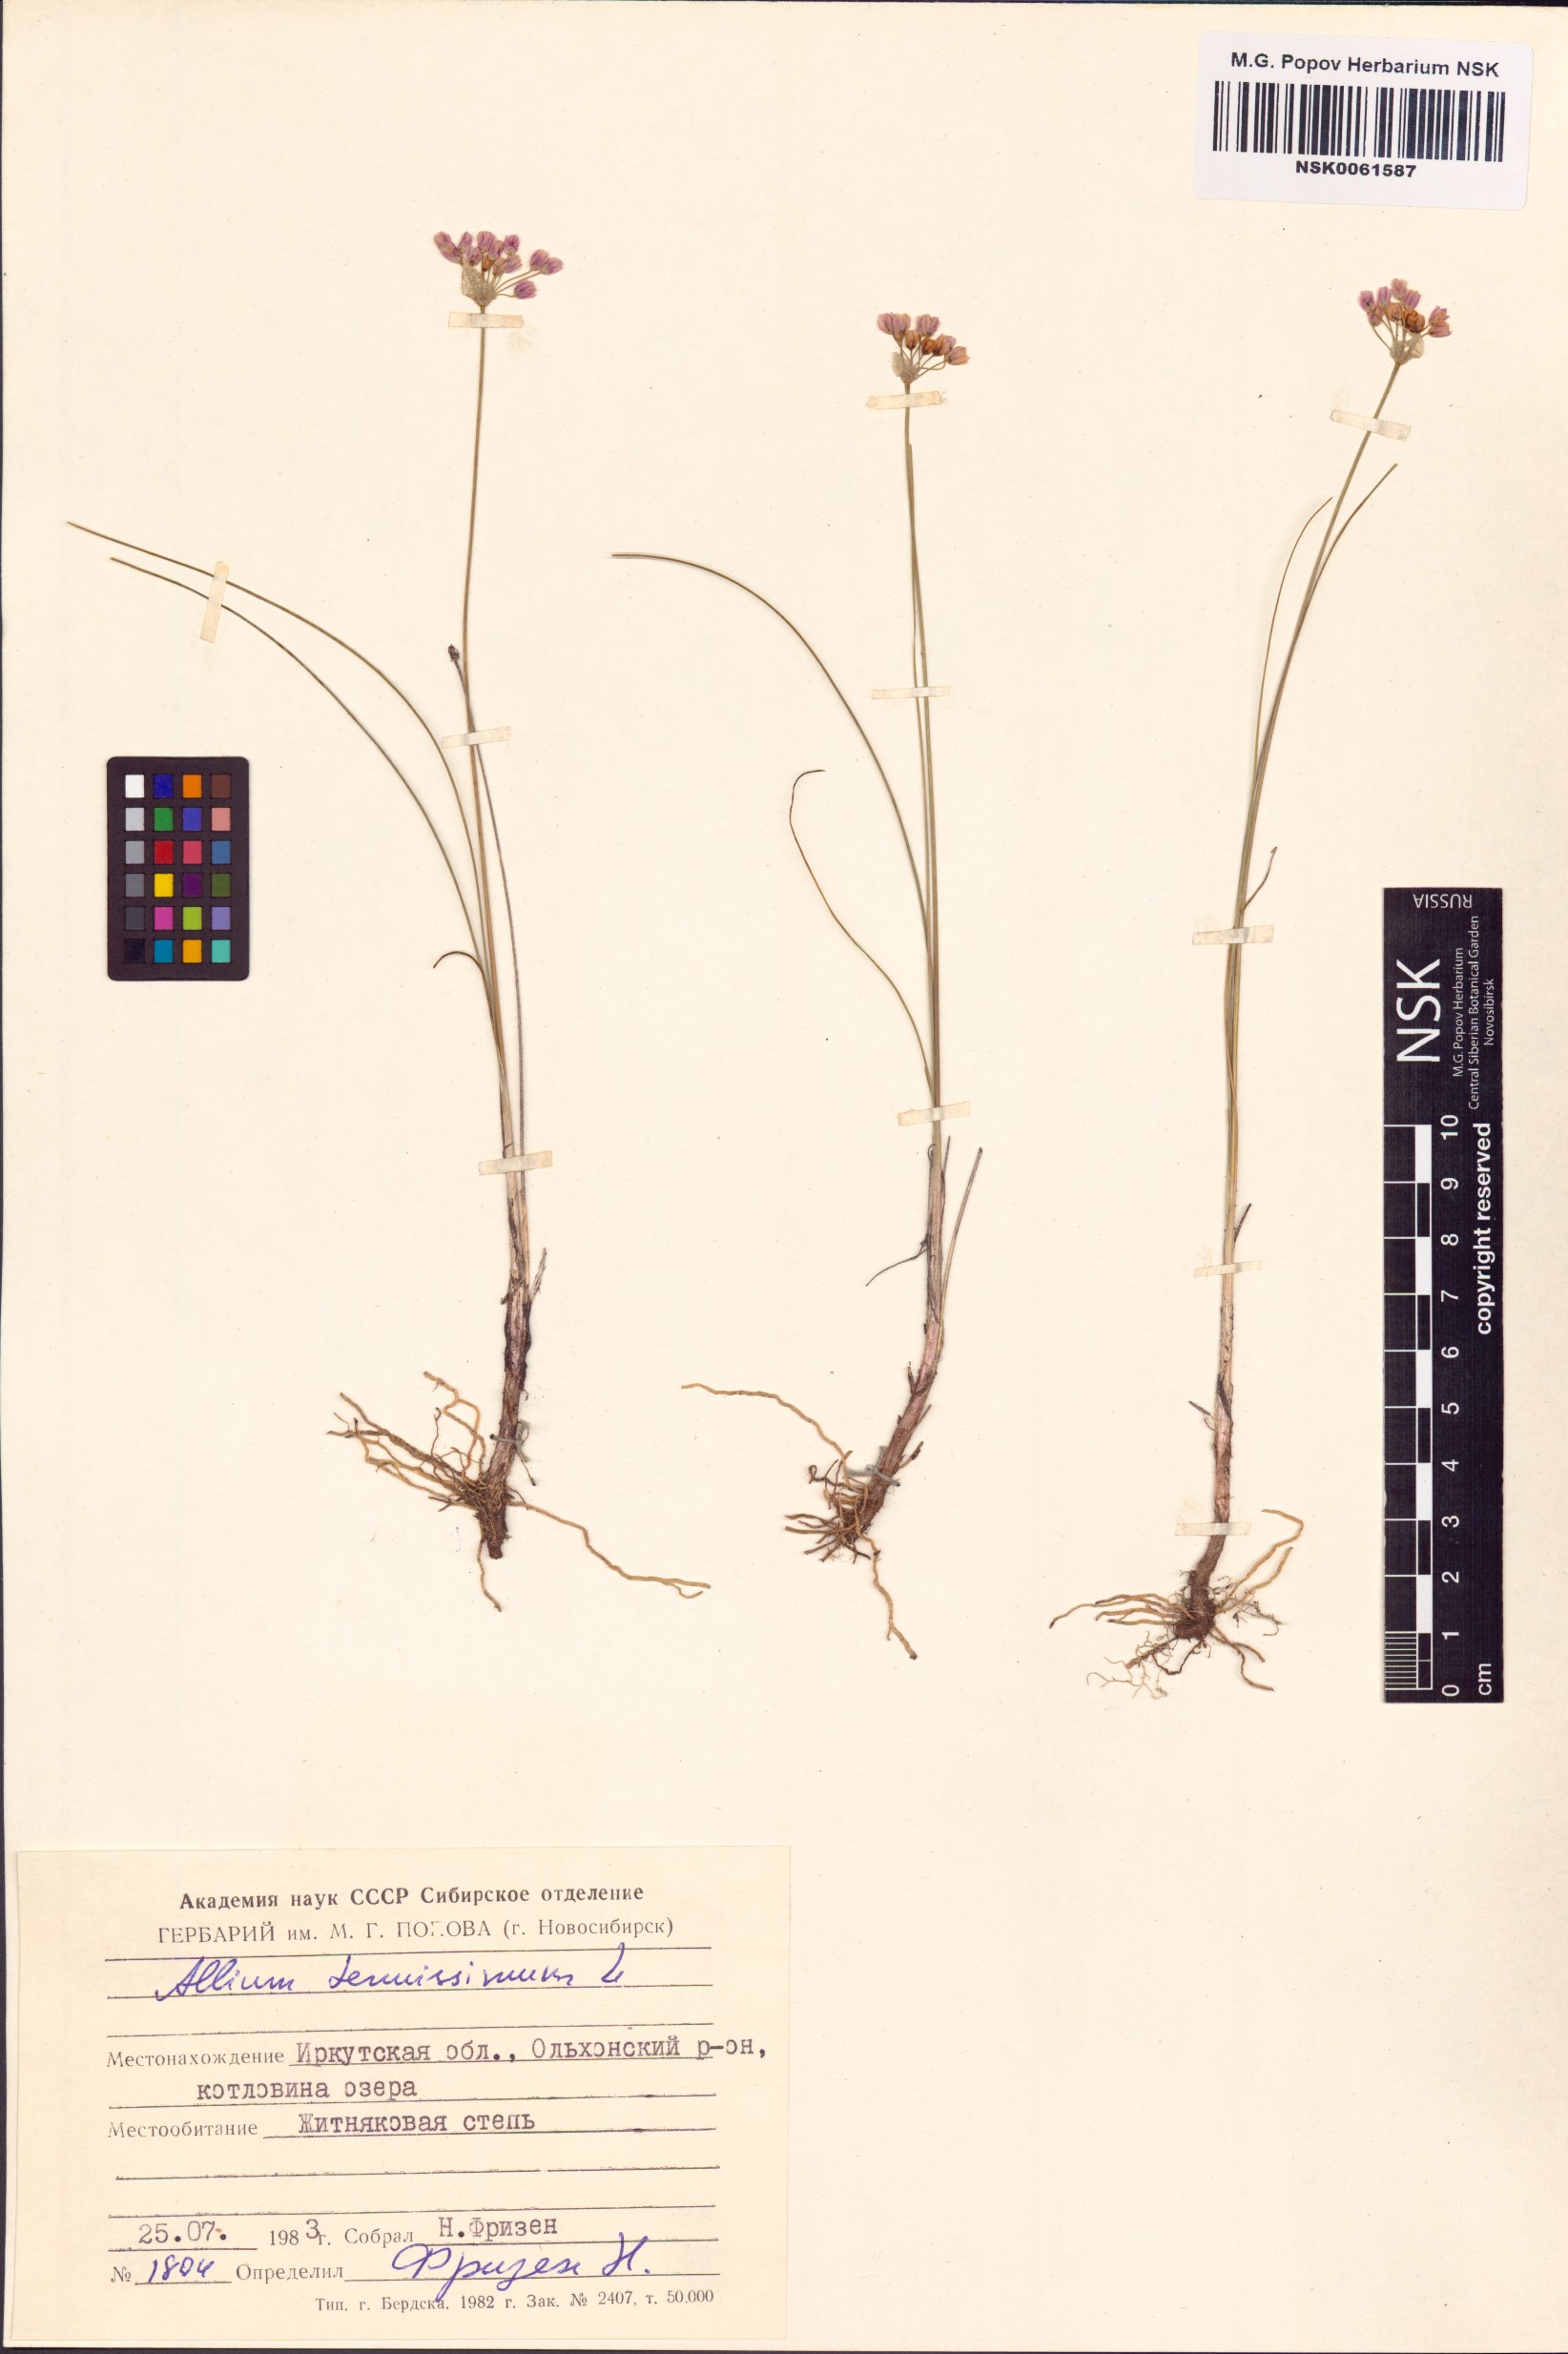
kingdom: Plantae
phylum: Tracheophyta
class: Liliopsida
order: Asparagales
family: Amaryllidaceae
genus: Allium
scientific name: Allium tenuissimum
